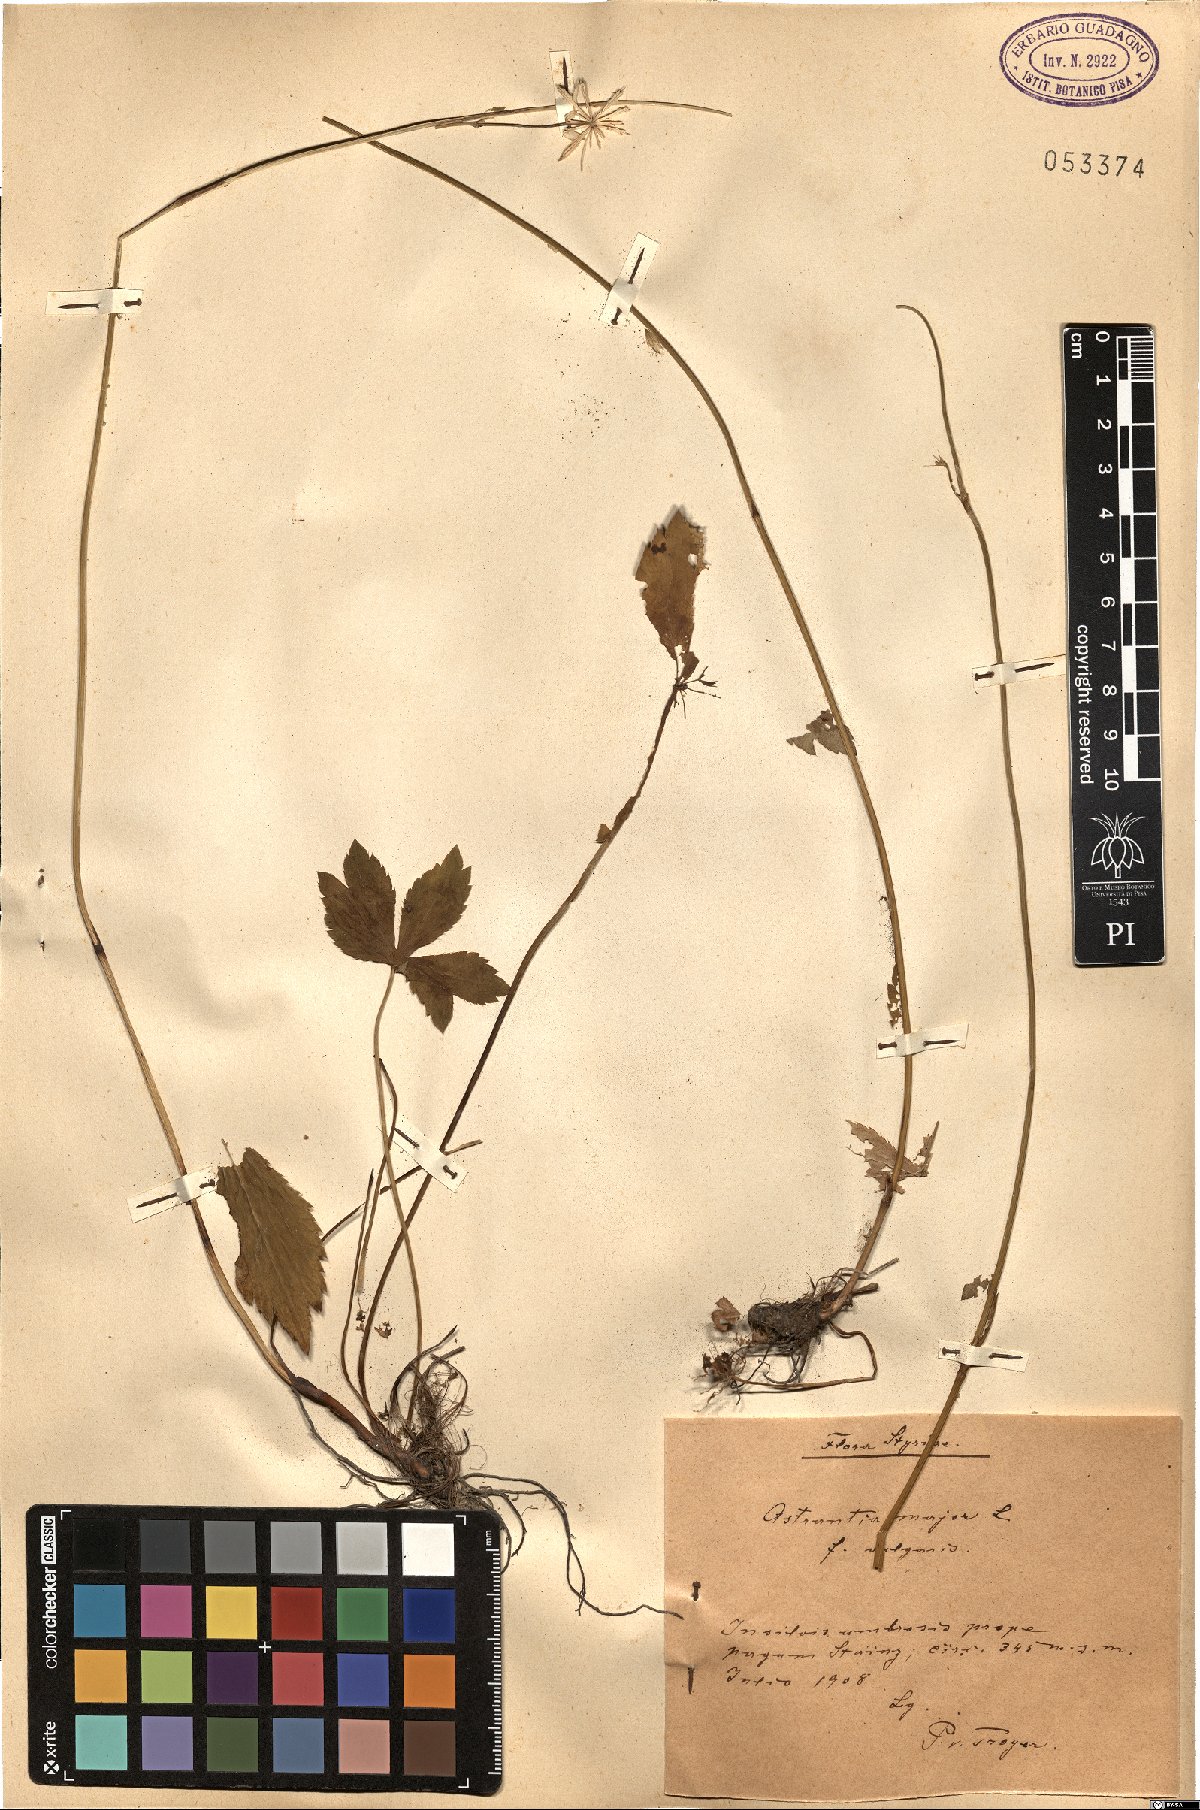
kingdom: Plantae
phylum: Tracheophyta
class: Magnoliopsida
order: Apiales
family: Apiaceae
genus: Astrantia
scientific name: Astrantia major
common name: Greater masterwort
